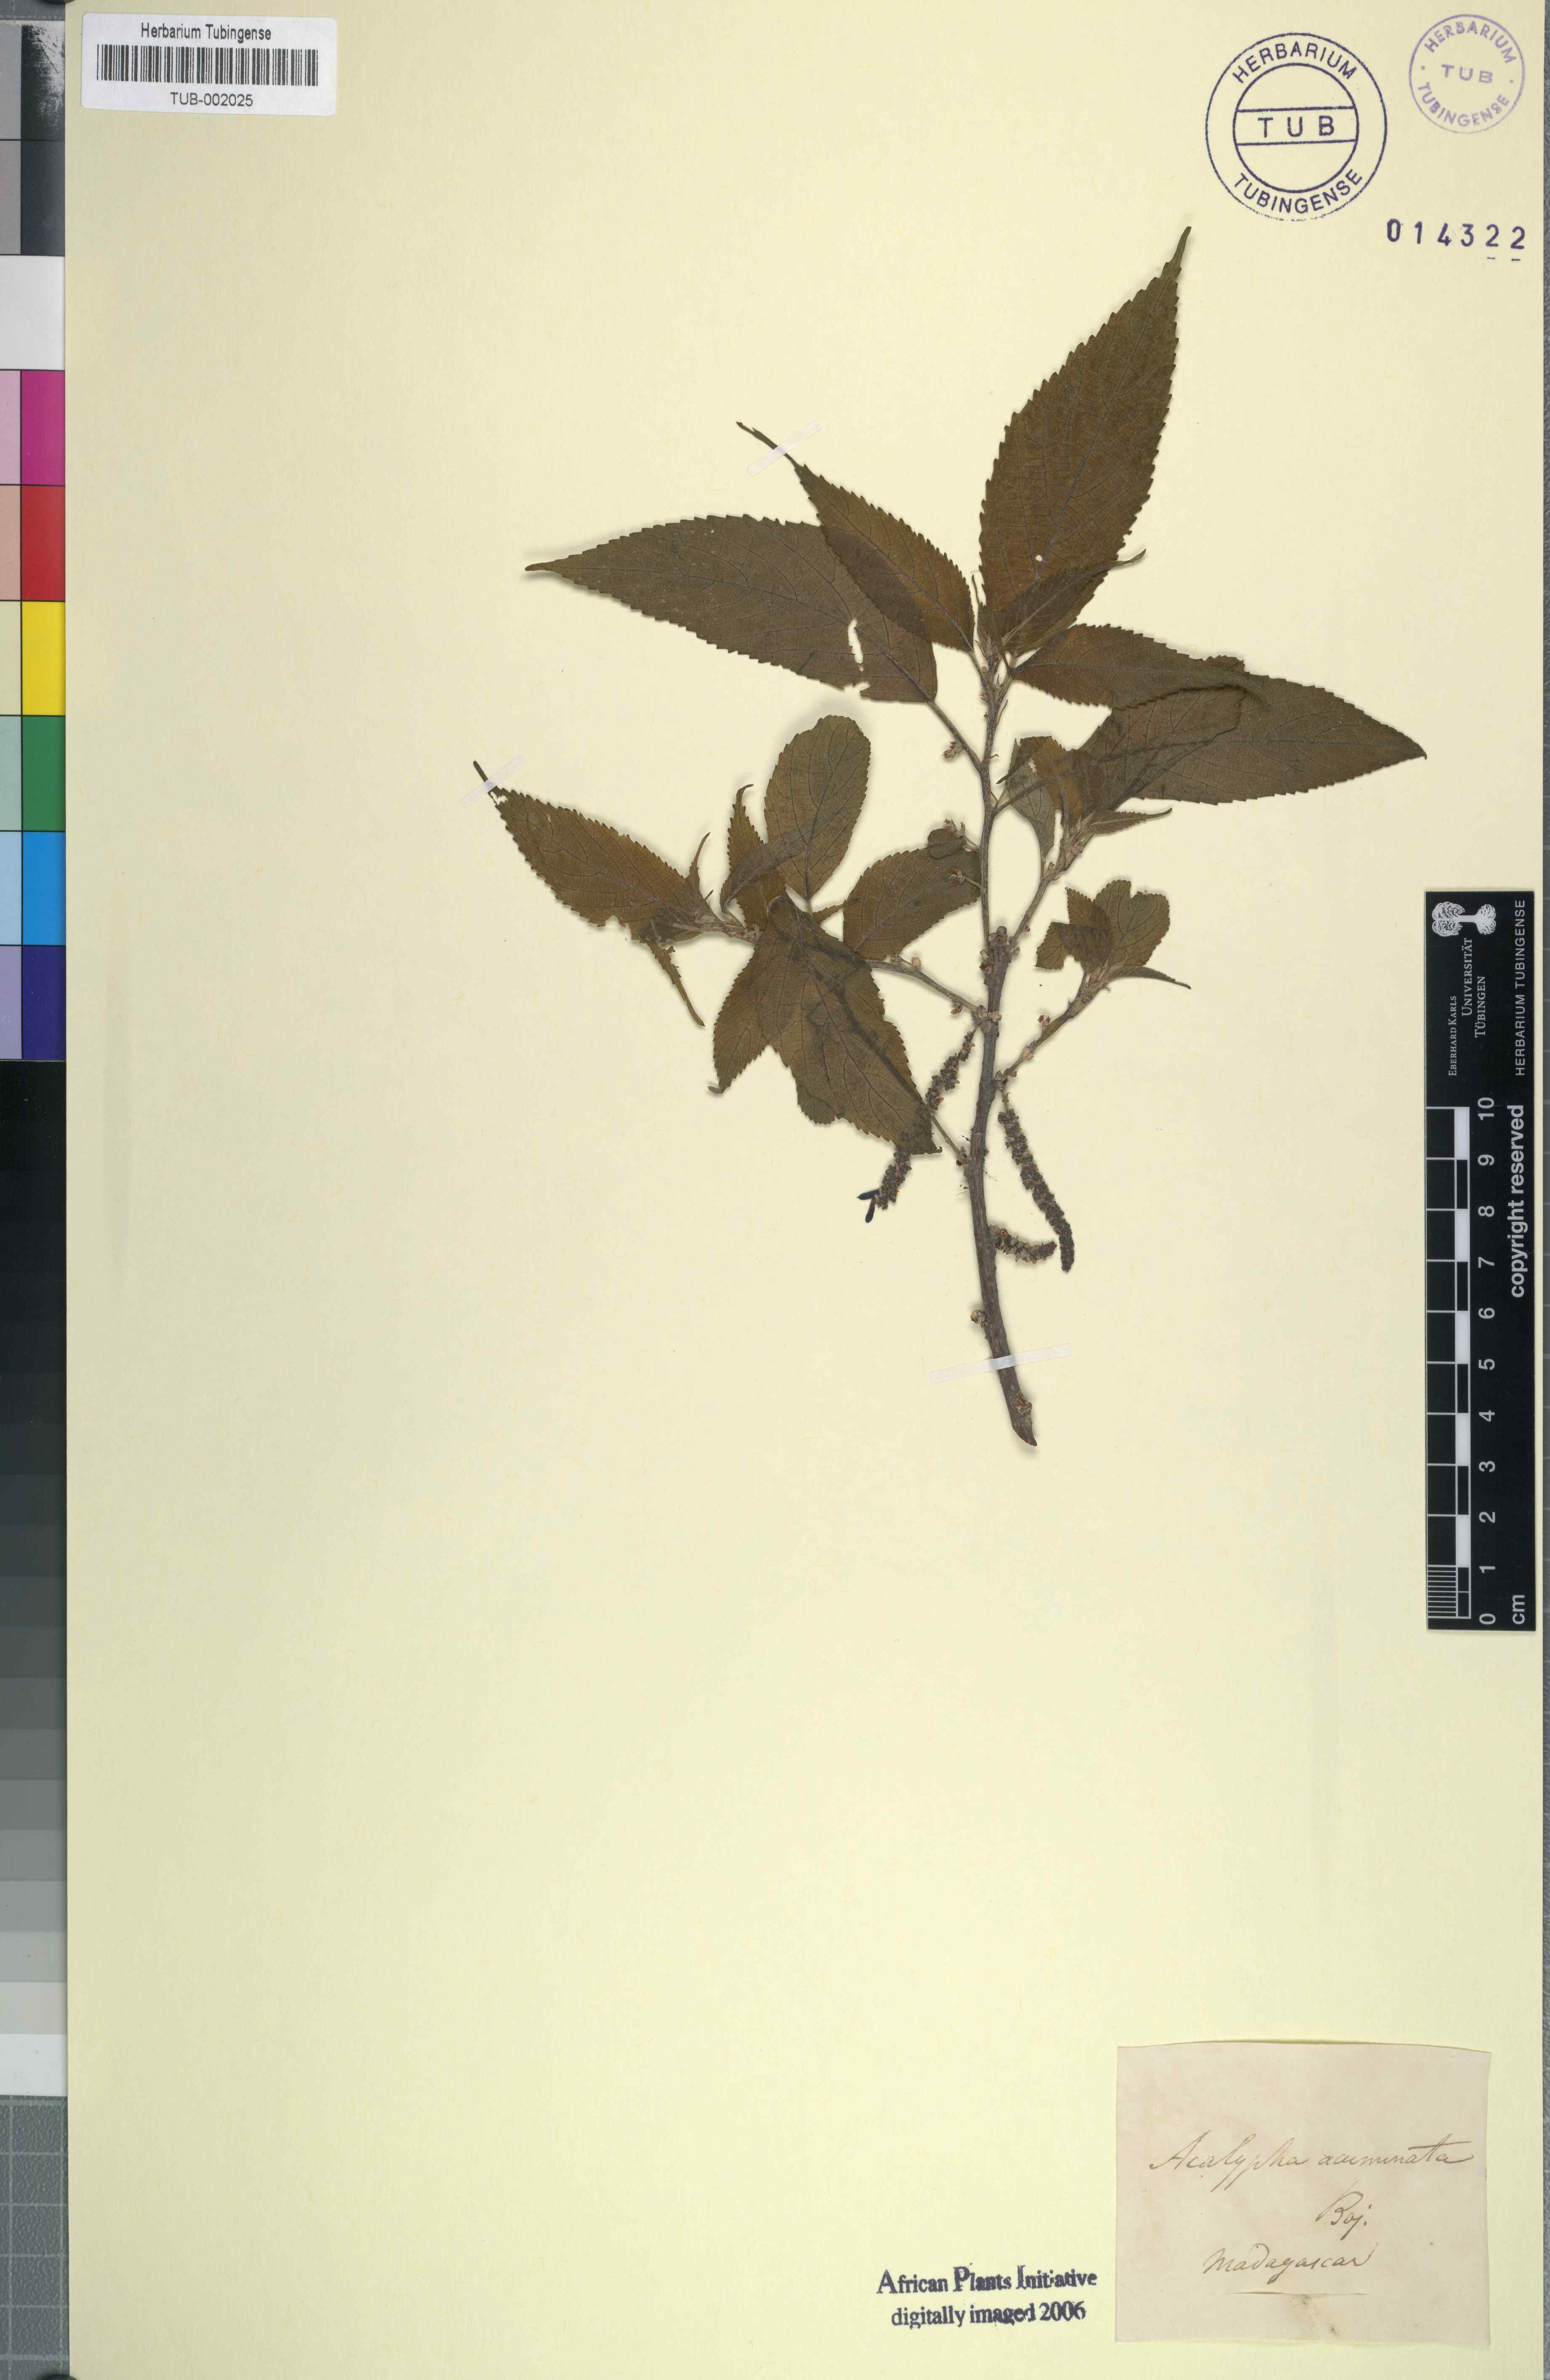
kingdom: Plantae
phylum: Tracheophyta
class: Magnoliopsida
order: Malpighiales
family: Euphorbiaceae
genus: Acalypha
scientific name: Acalypha burmanii
